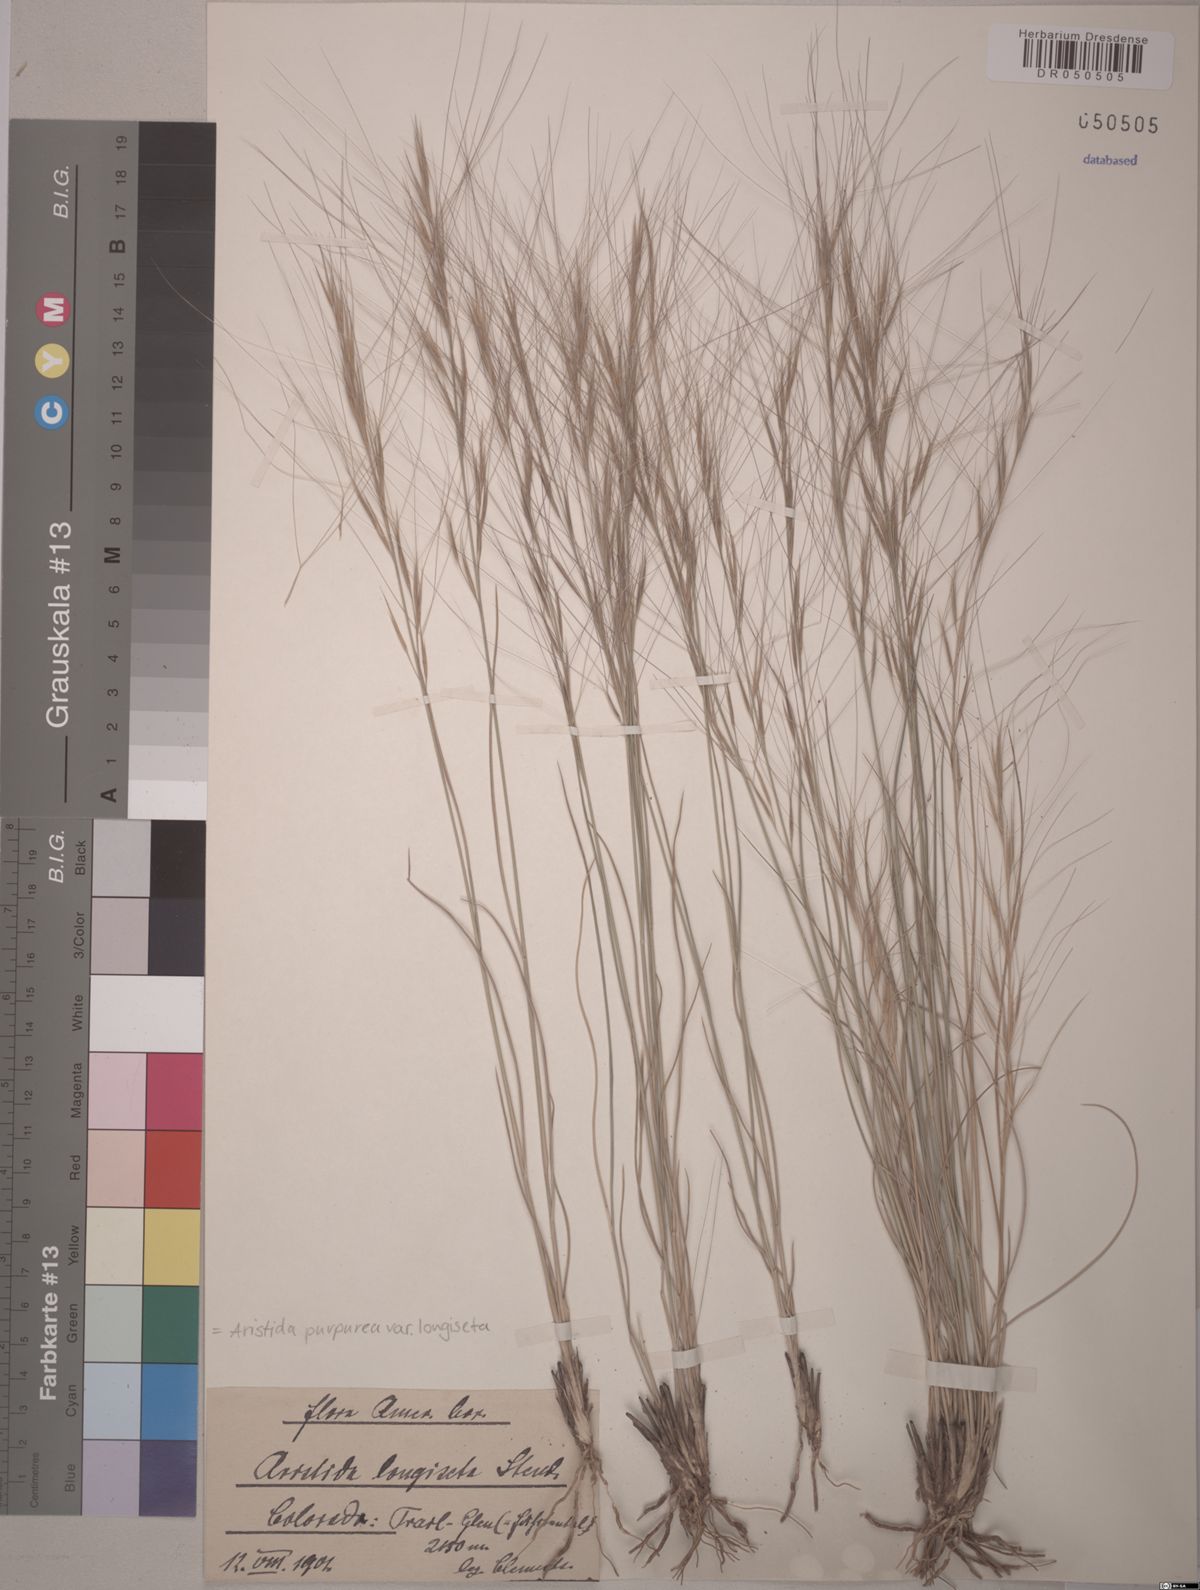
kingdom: Plantae
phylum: Tracheophyta
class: Liliopsida
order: Poales
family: Poaceae
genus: Aristida
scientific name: Aristida longiseta
